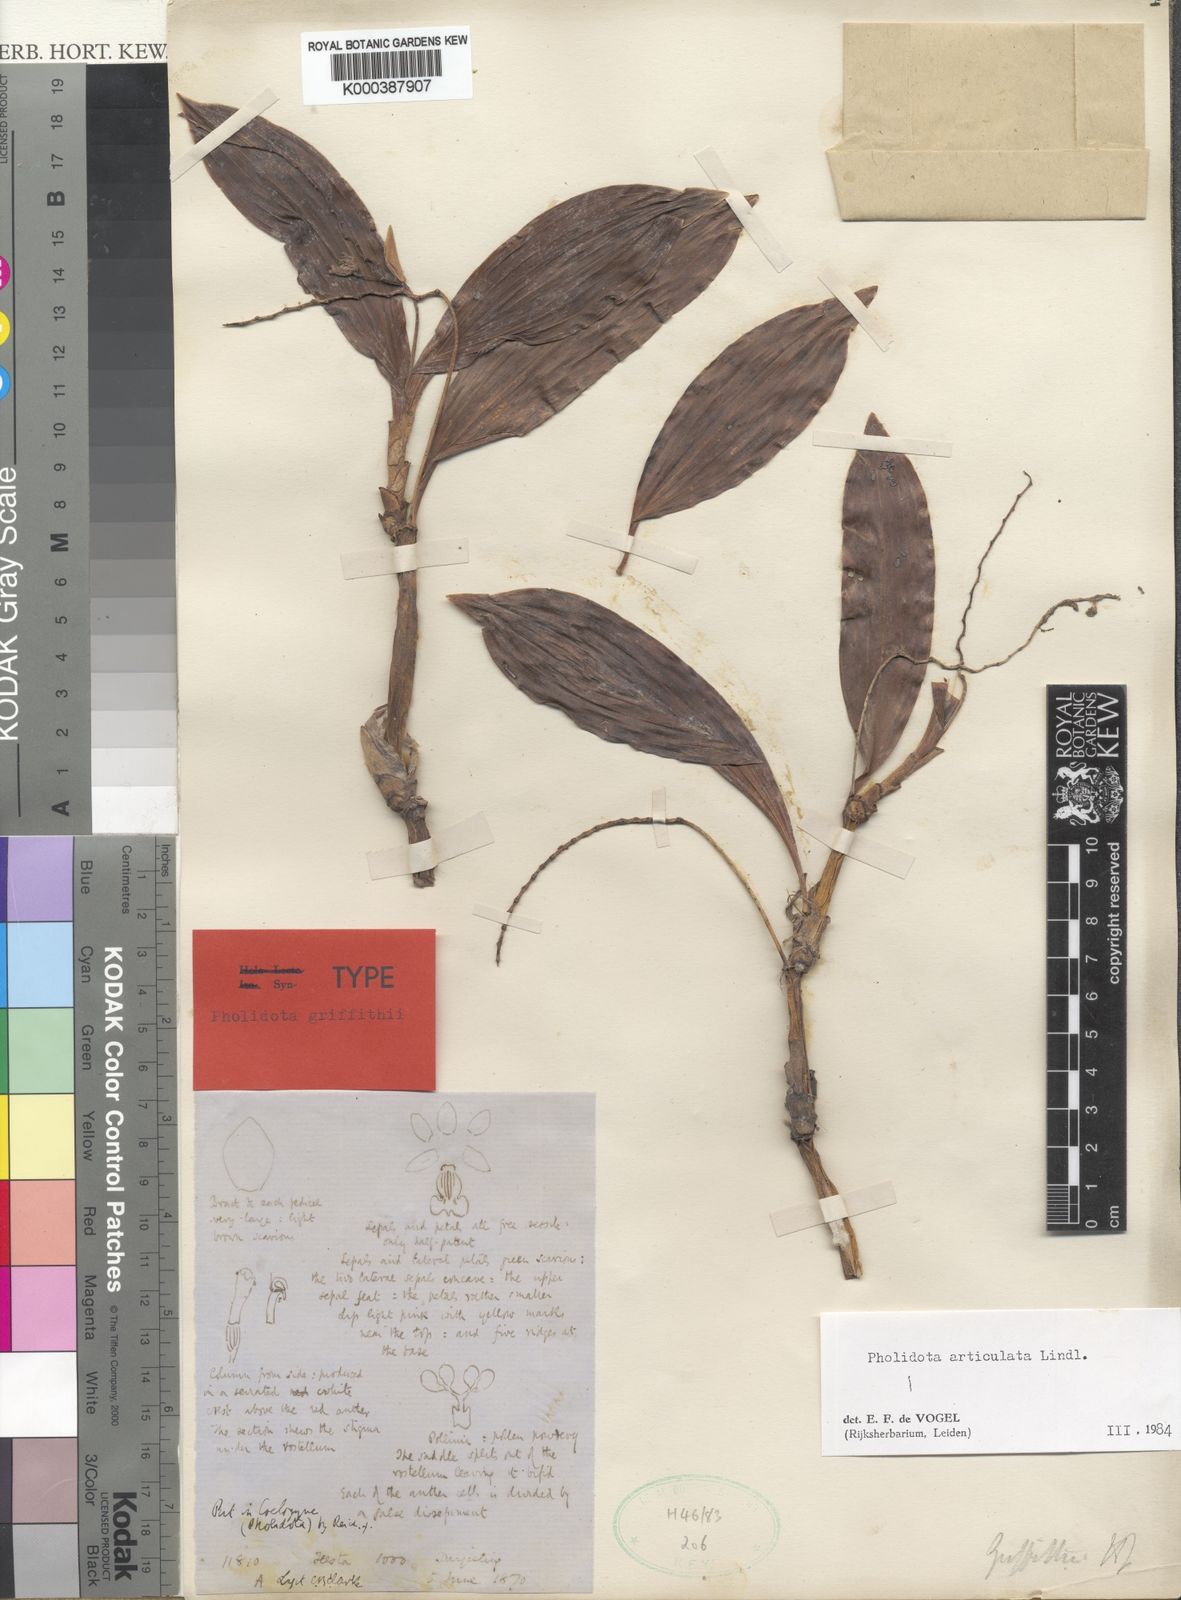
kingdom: Plantae
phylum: Tracheophyta
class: Liliopsida
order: Asparagales
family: Orchidaceae
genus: Coelogyne
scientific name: Coelogyne articulata
